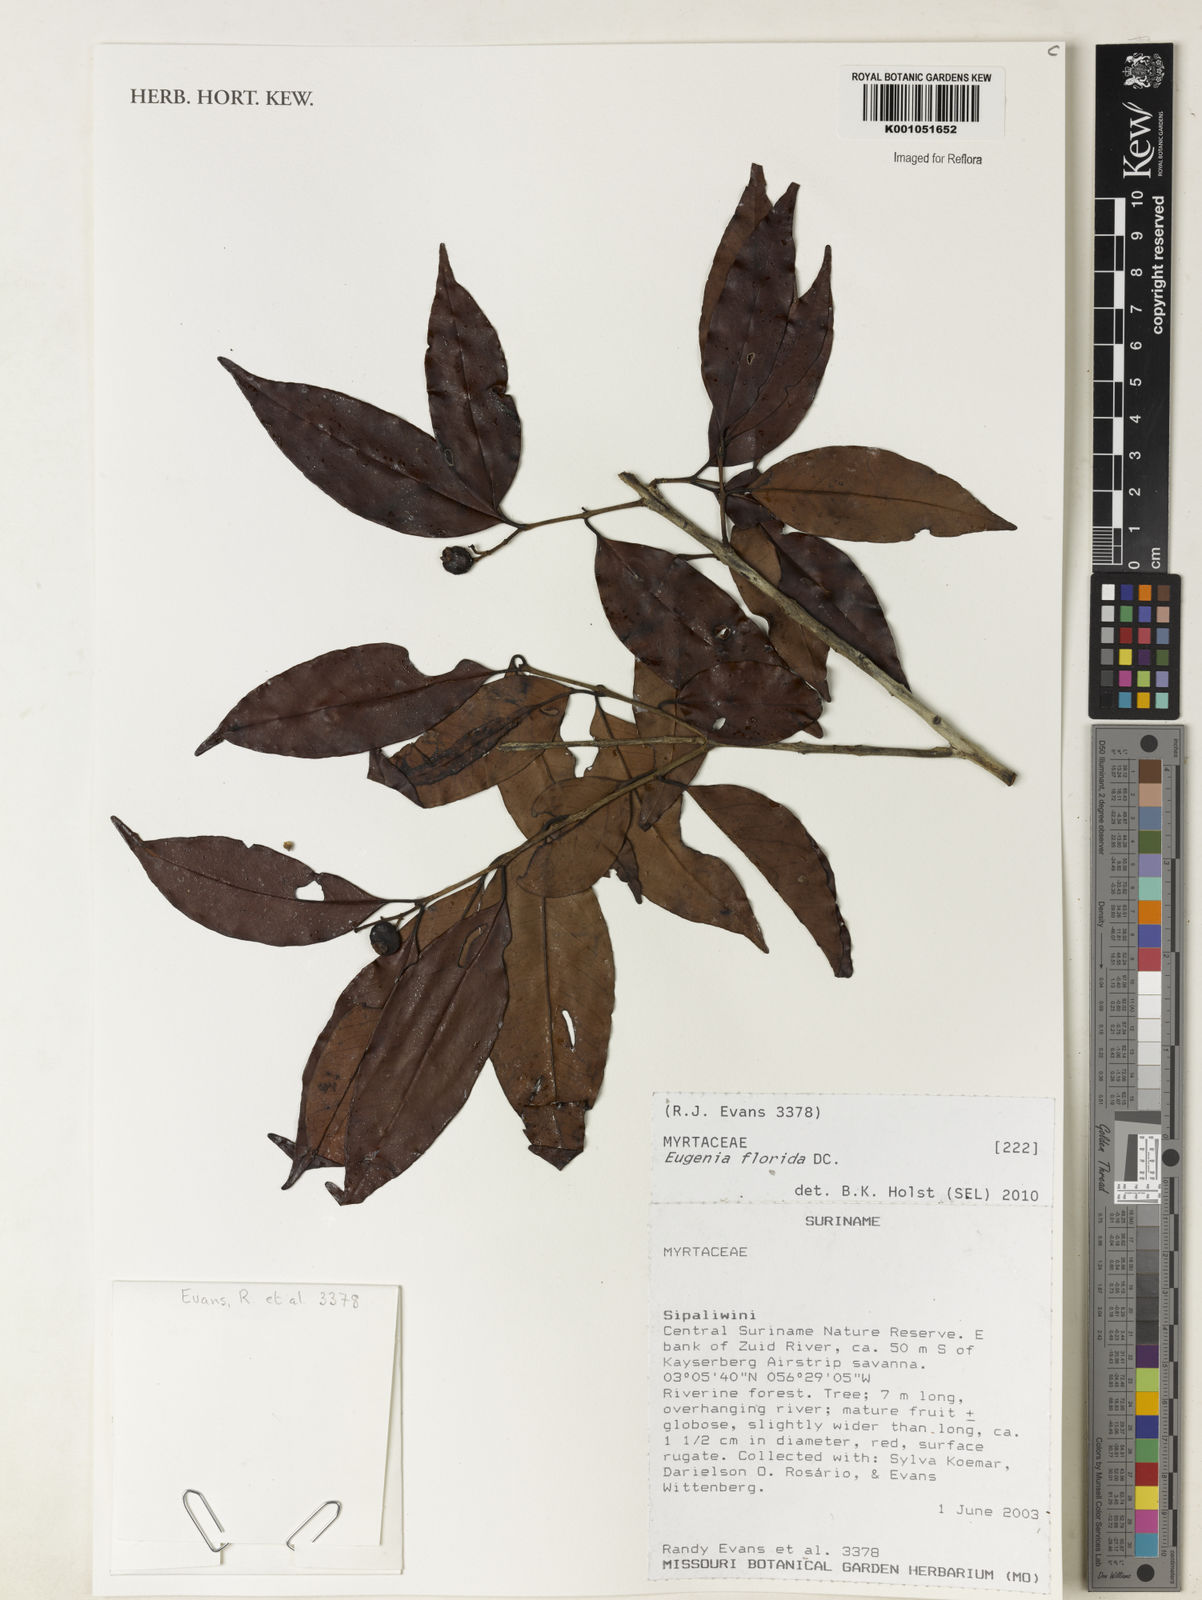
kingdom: Plantae
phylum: Tracheophyta
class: Magnoliopsida
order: Myrtales
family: Myrtaceae
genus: Eugenia
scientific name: Eugenia florida
